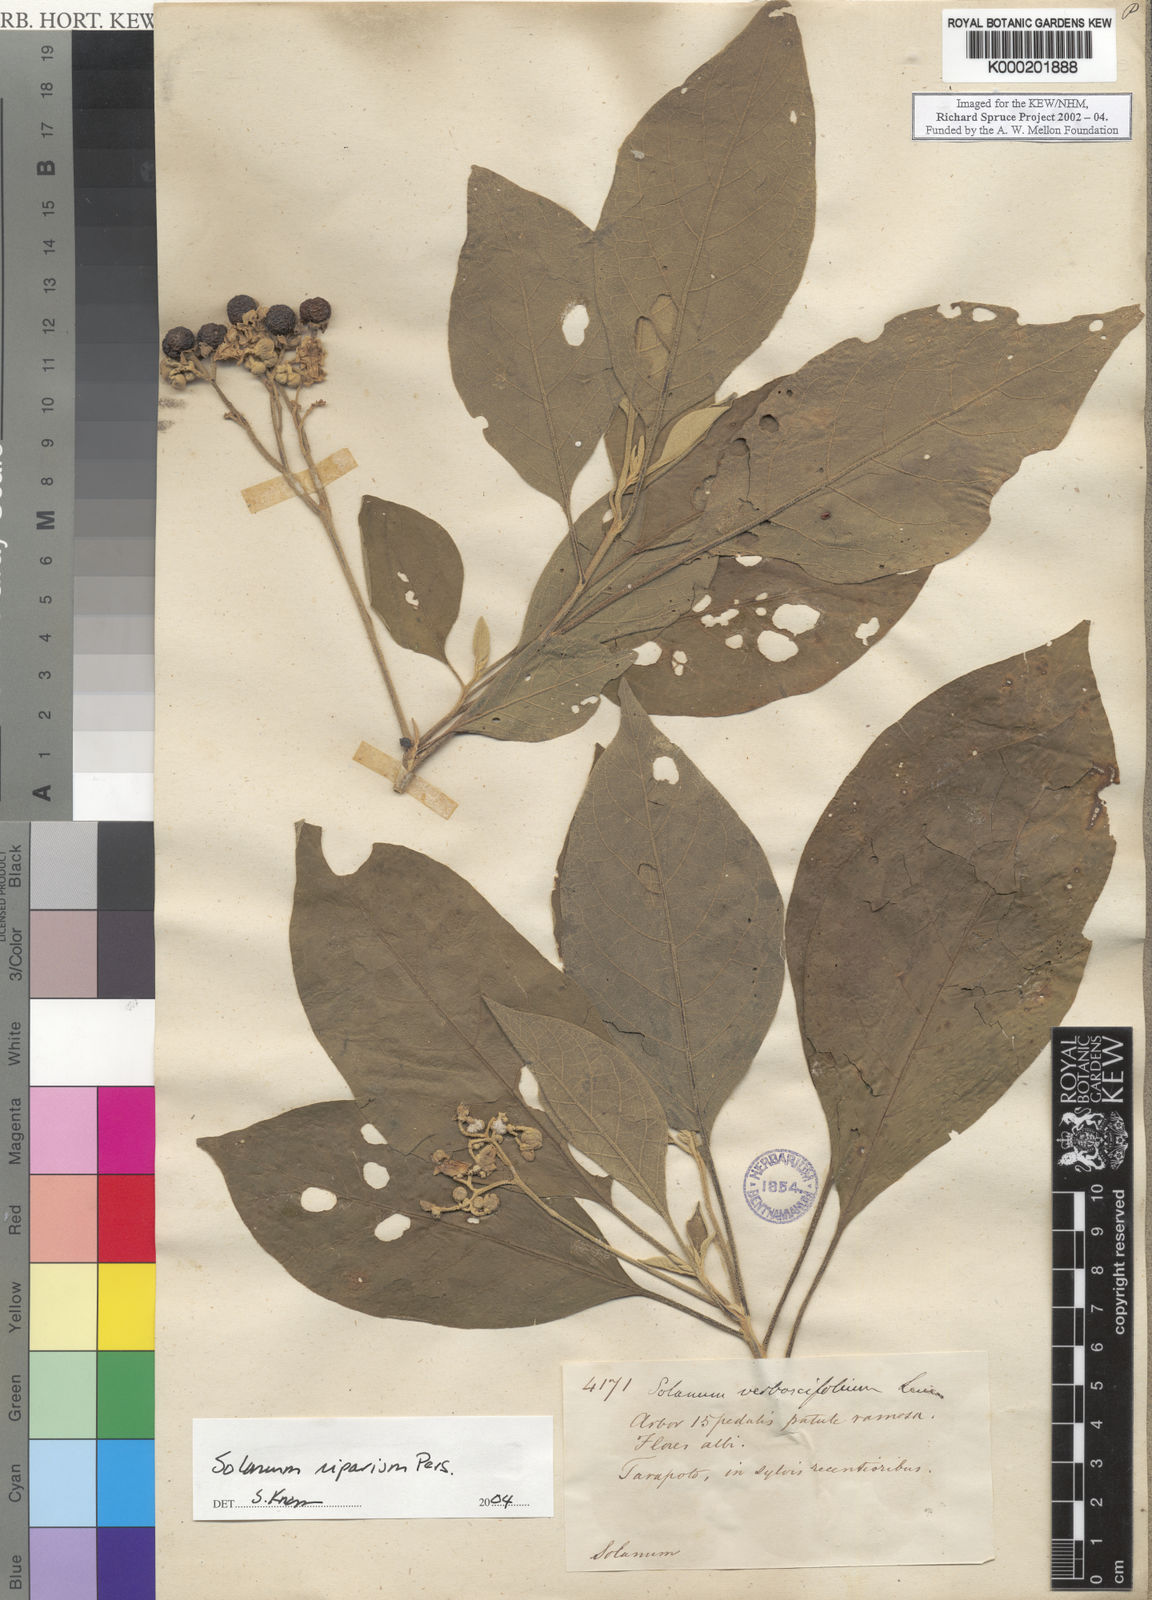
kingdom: Plantae
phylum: Tracheophyta
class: Magnoliopsida
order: Solanales
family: Solanaceae
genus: Solanum
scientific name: Solanum riparium
